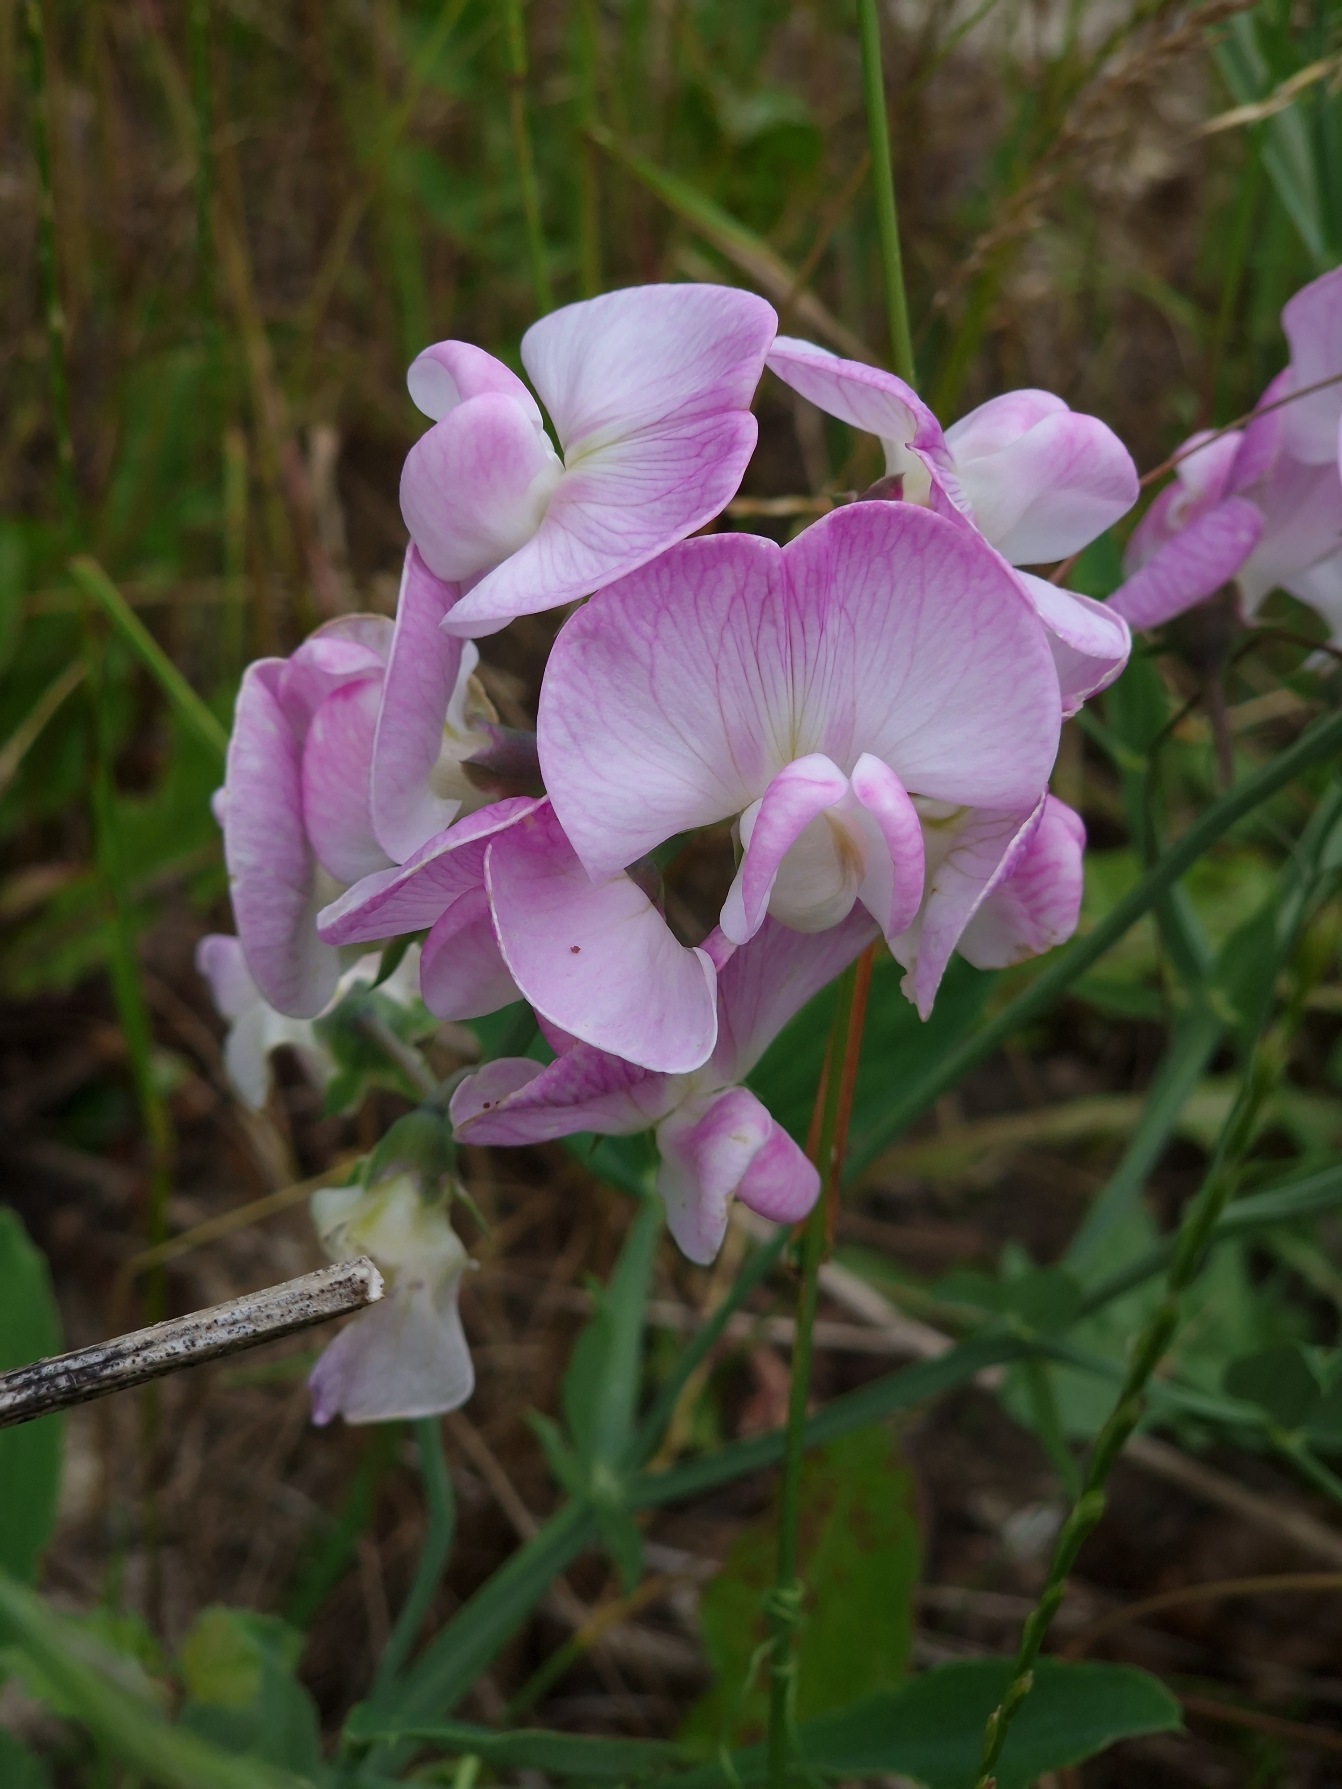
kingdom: Plantae
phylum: Tracheophyta
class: Magnoliopsida
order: Fabales
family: Fabaceae
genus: Lathyrus
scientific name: Lathyrus latifolius
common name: Flerårig ærteblomst
